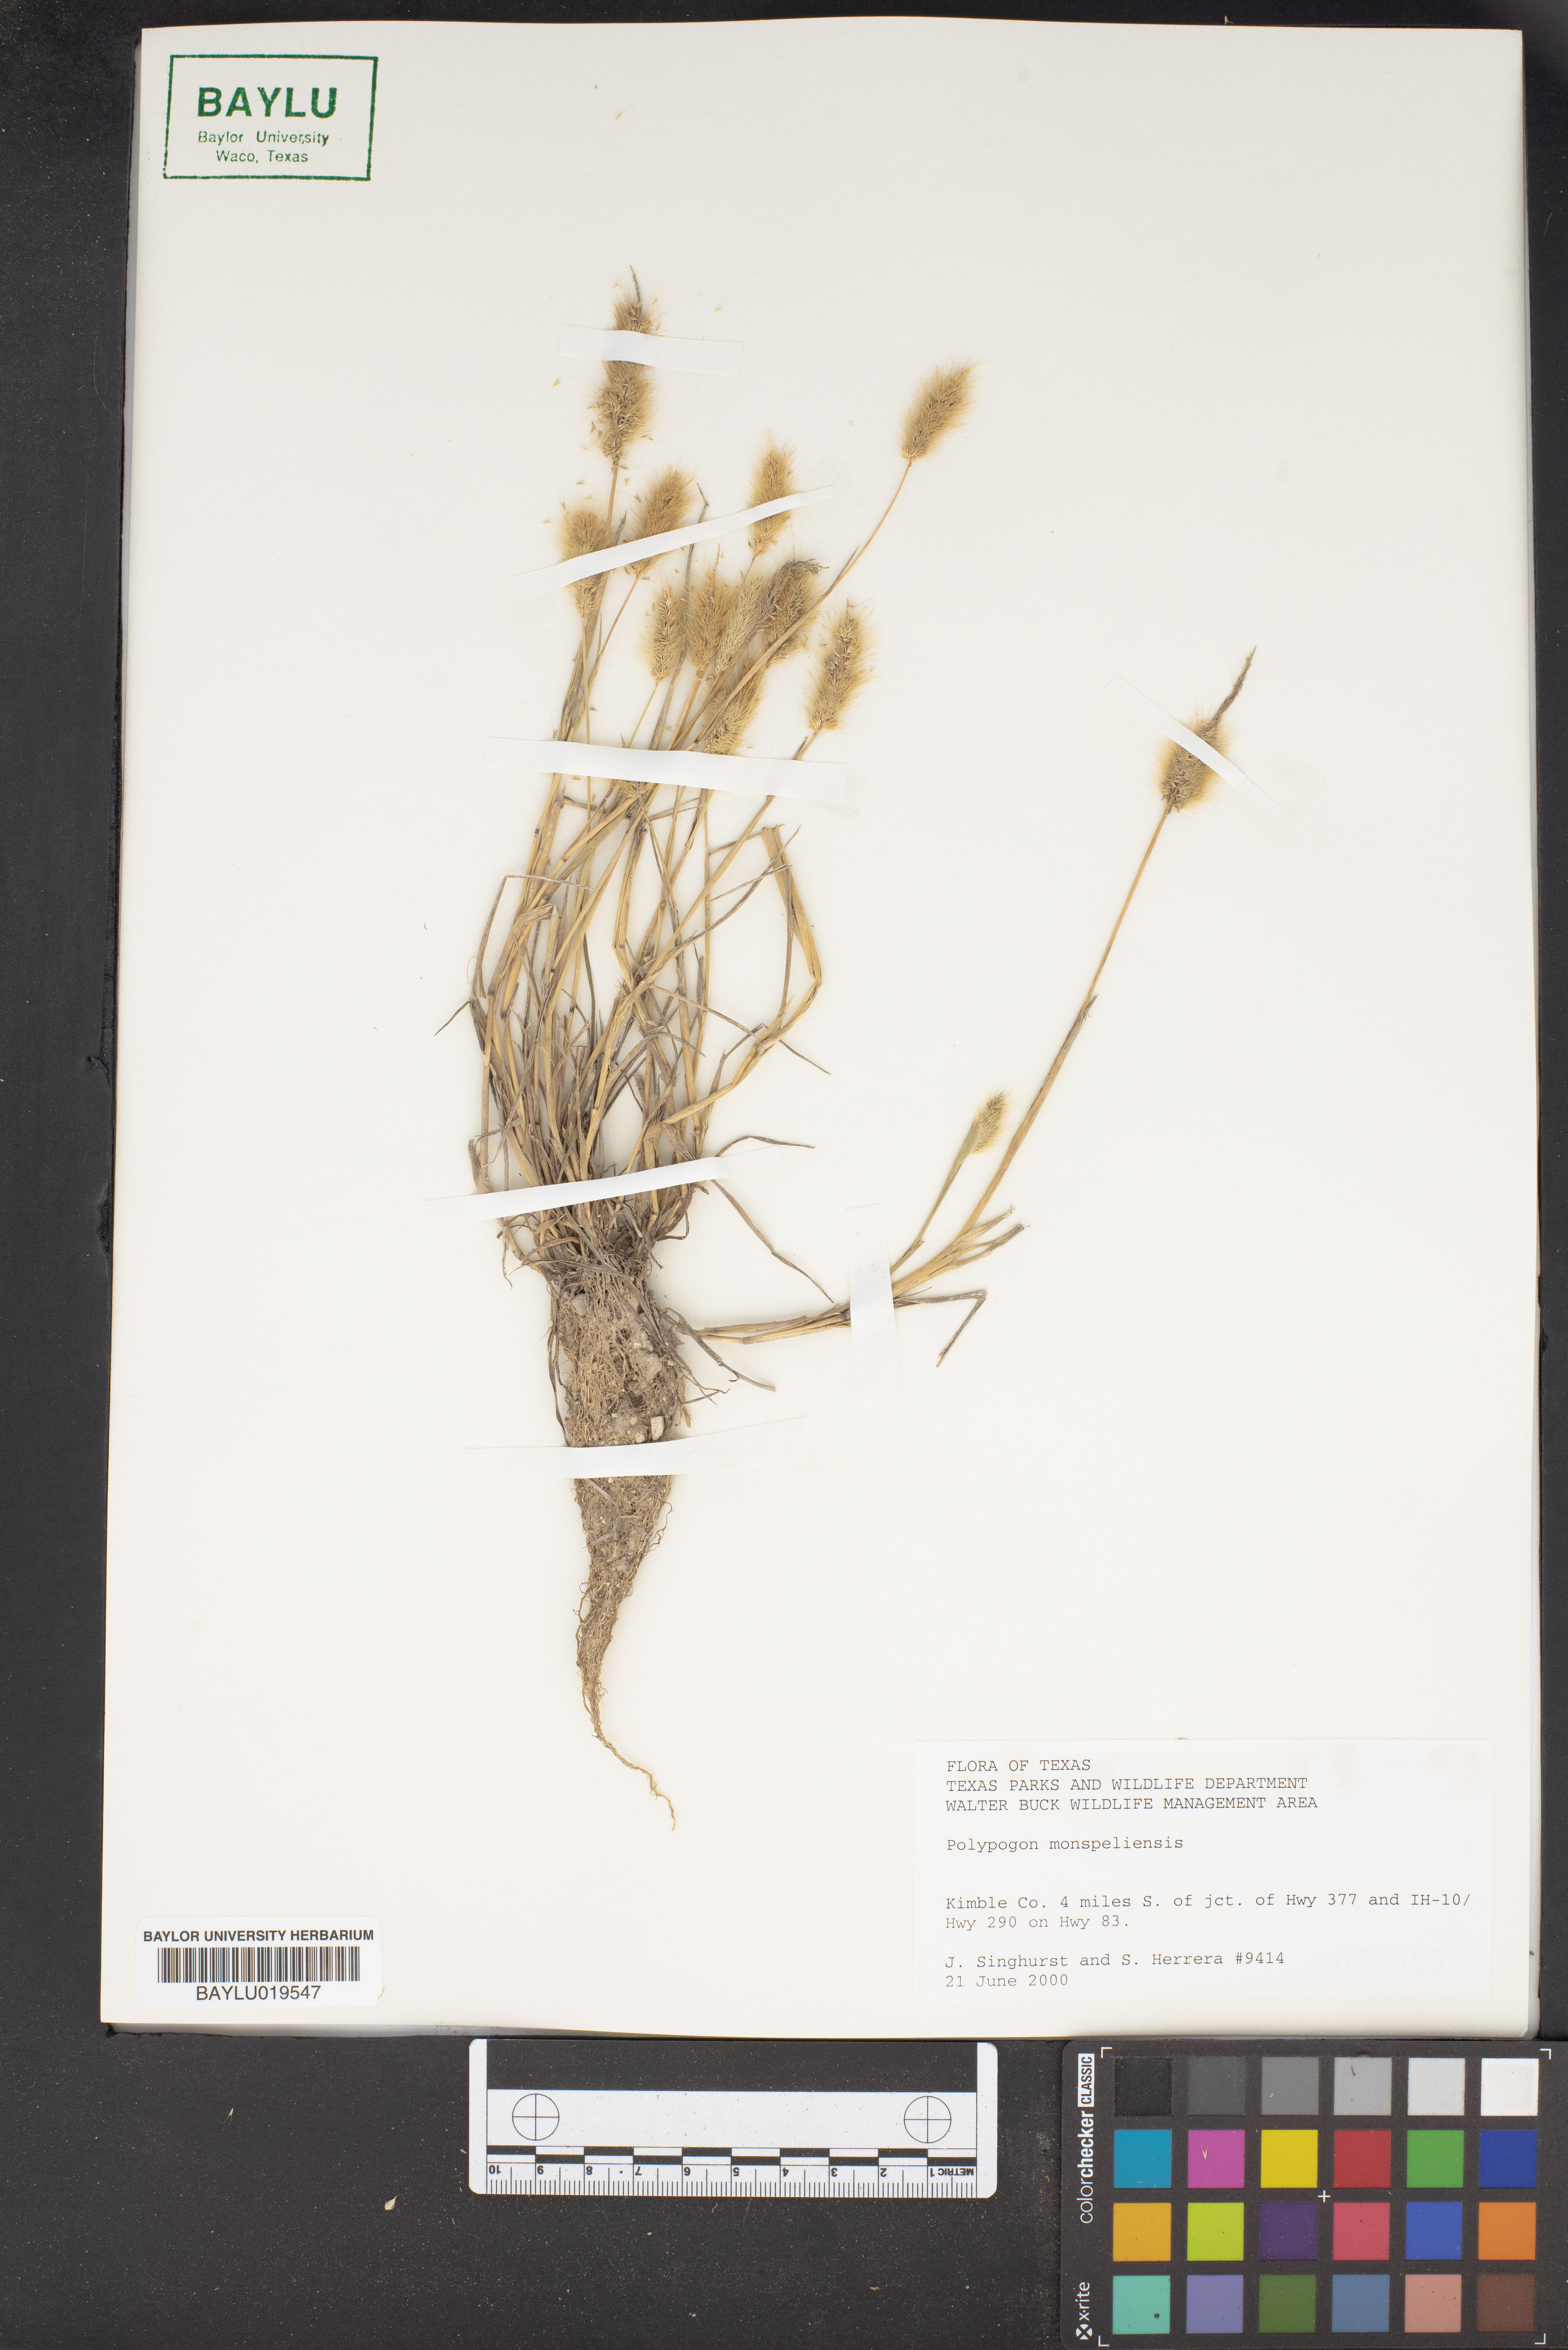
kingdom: Plantae
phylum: Tracheophyta
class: Liliopsida
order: Poales
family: Poaceae
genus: Polypogon
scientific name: Polypogon monspeliensis
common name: Annual rabbitsfoot grass
